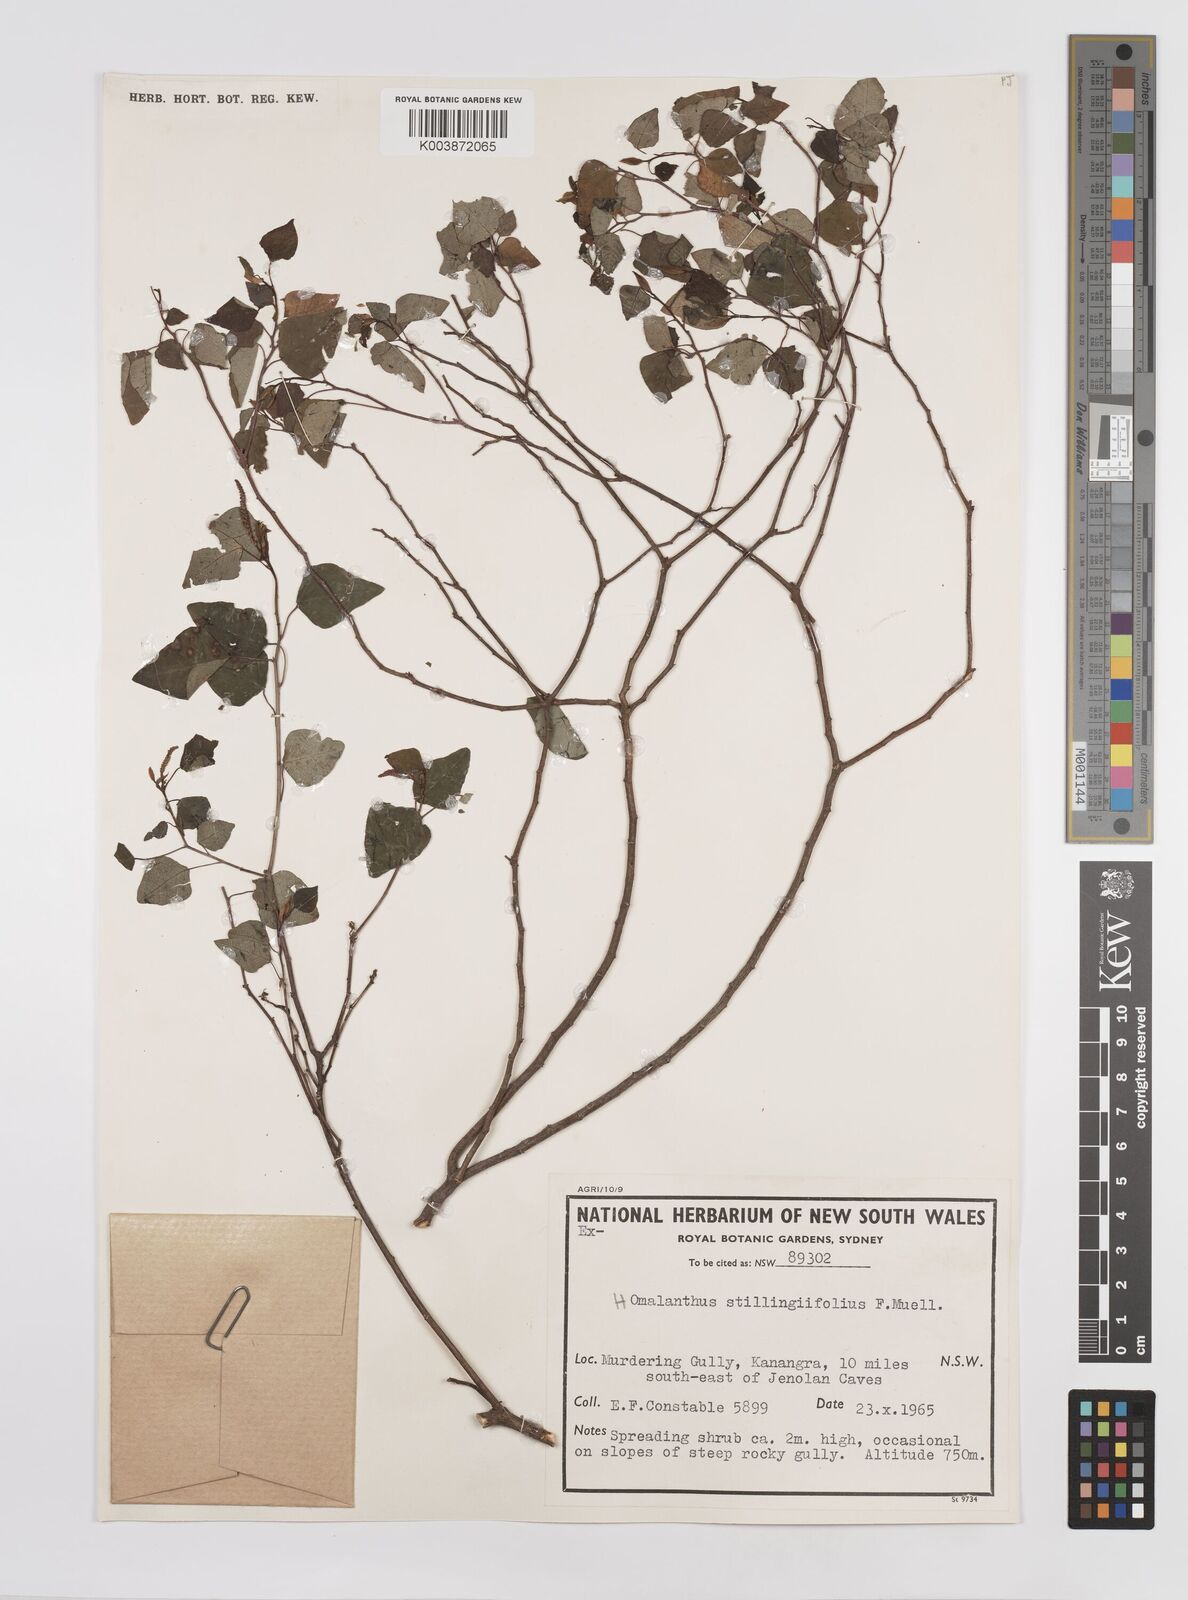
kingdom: Plantae
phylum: Tracheophyta
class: Magnoliopsida
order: Malpighiales
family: Euphorbiaceae
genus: Homalanthus
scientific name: Homalanthus stillingifolius
